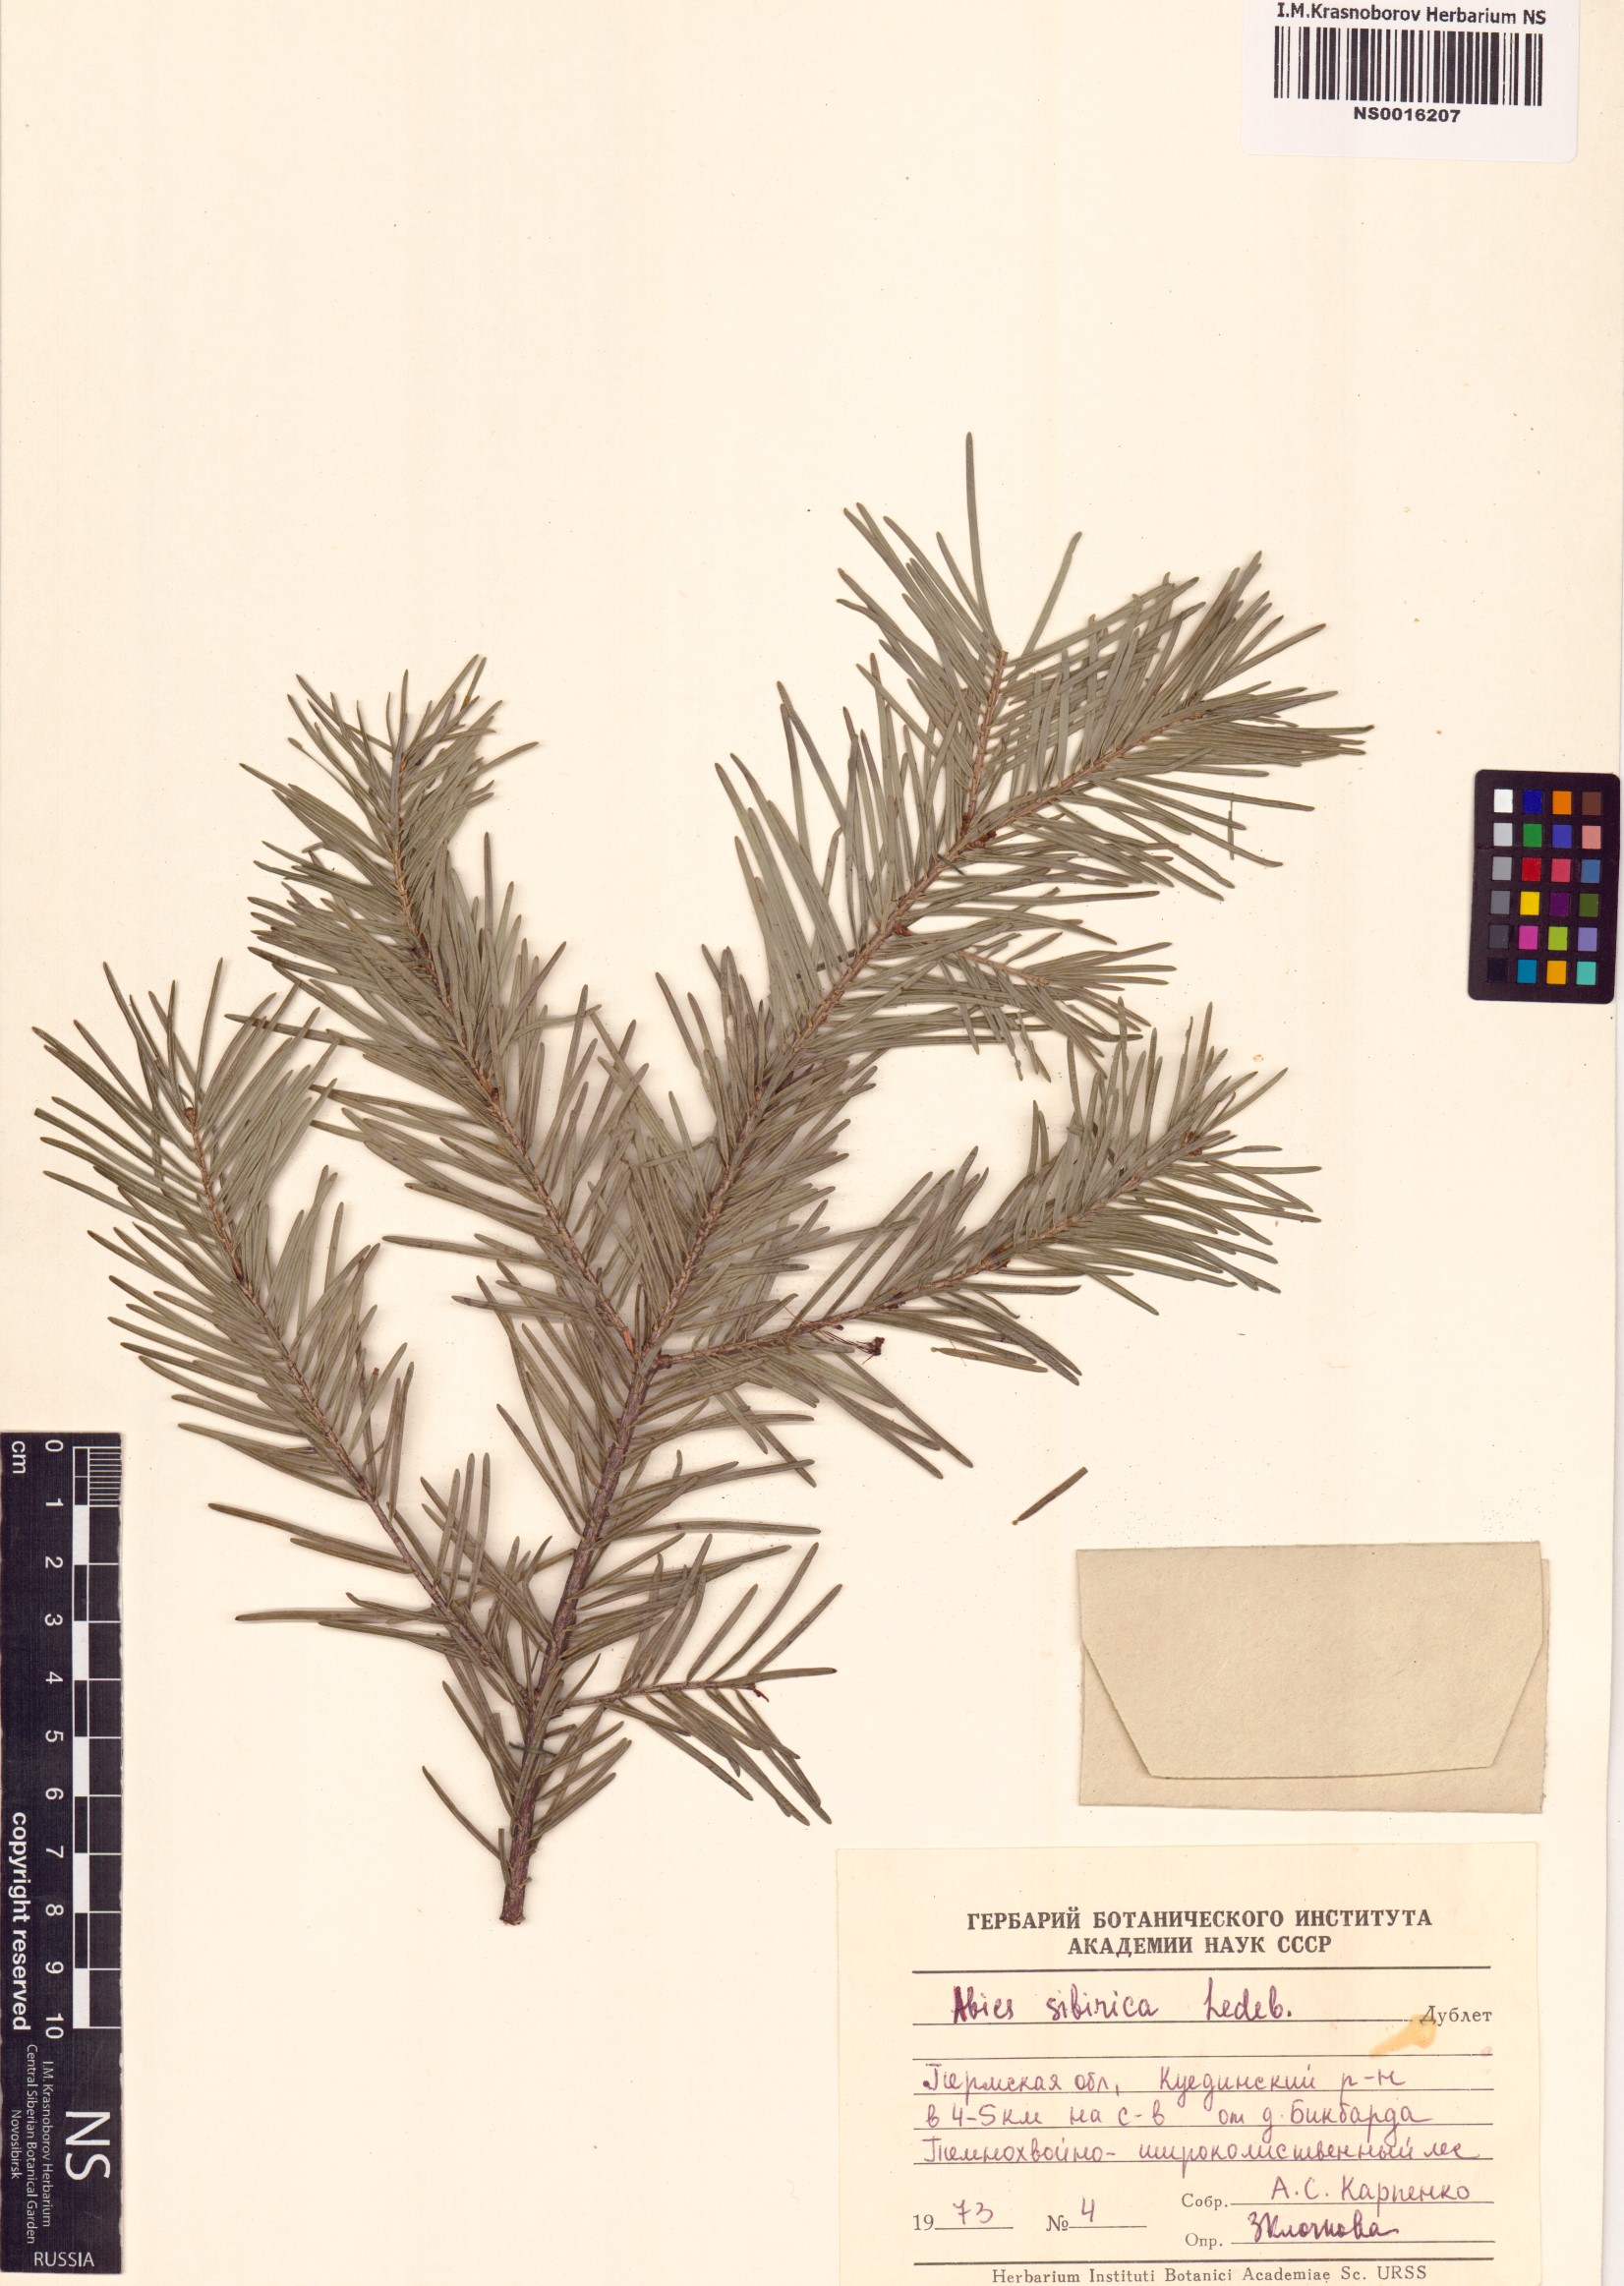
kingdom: Plantae
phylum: Tracheophyta
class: Pinopsida
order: Pinales
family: Pinaceae
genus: Abies
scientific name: Abies sibirica
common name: Siberian fir
